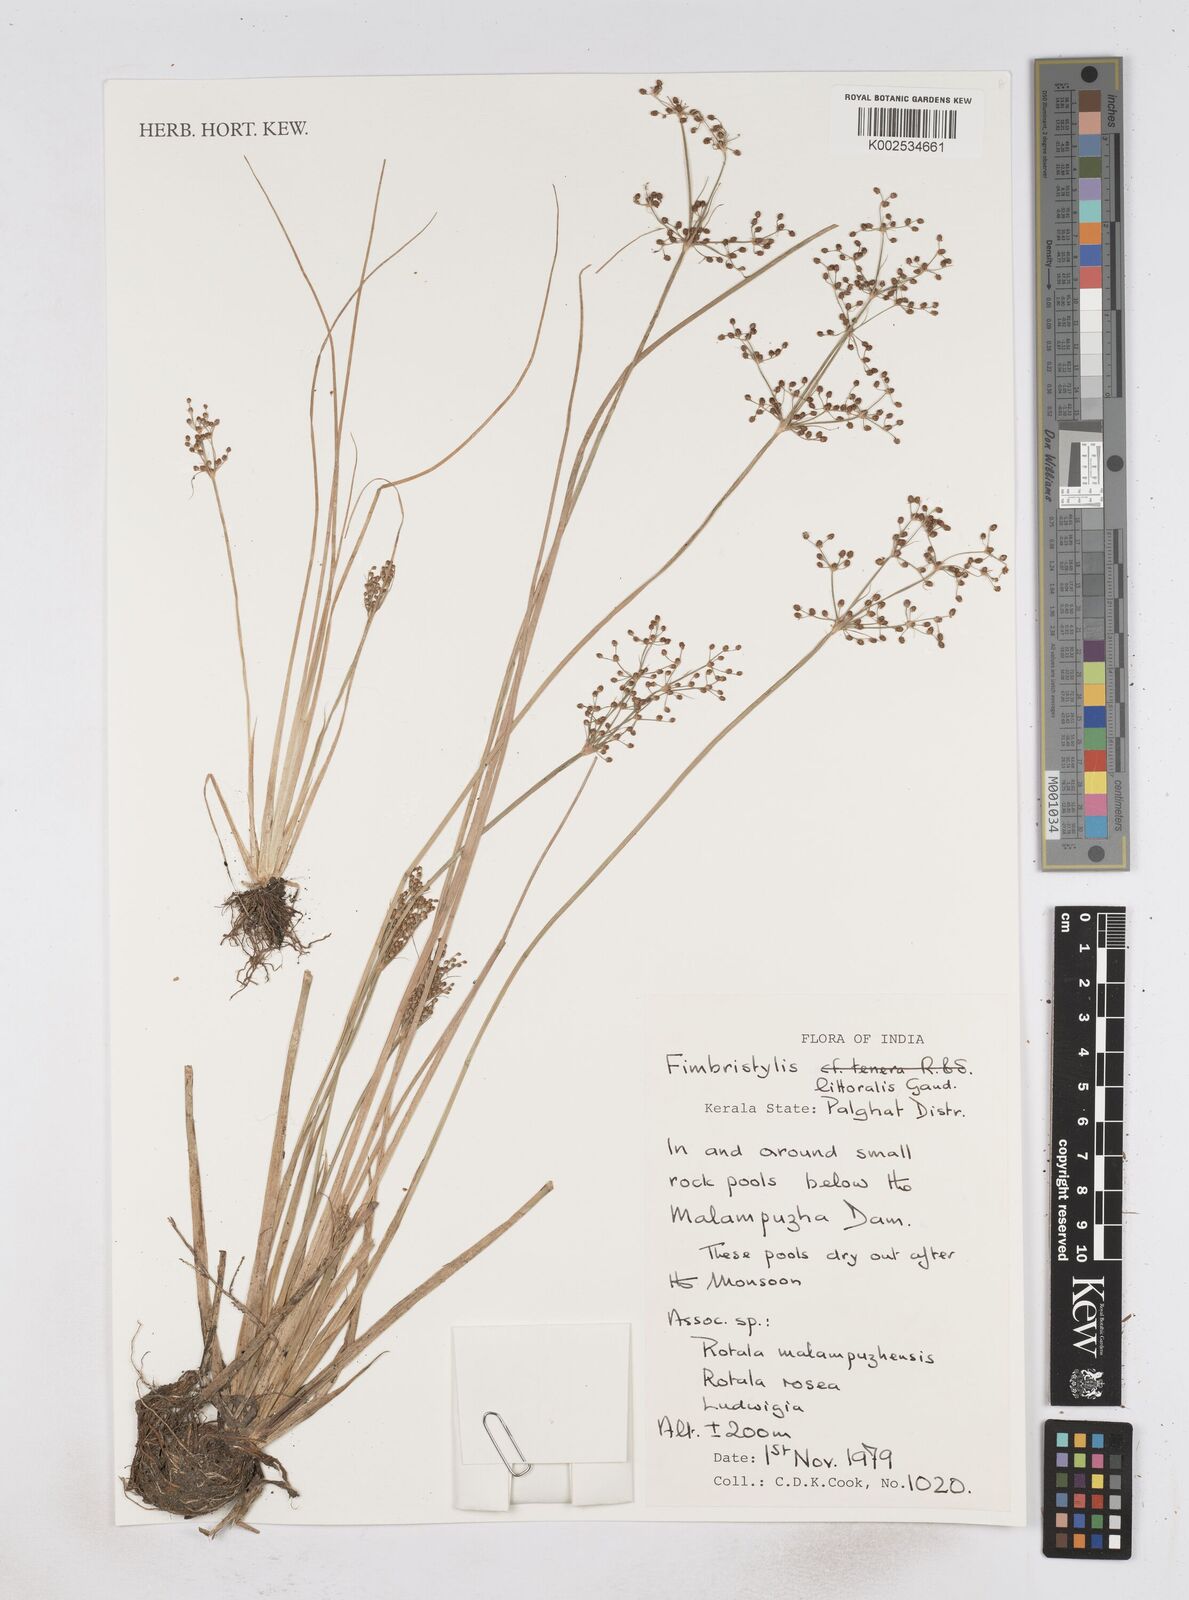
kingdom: Plantae
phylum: Tracheophyta
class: Liliopsida
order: Poales
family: Cyperaceae
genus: Fimbristylis
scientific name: Fimbristylis littoralis
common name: Fimbry
